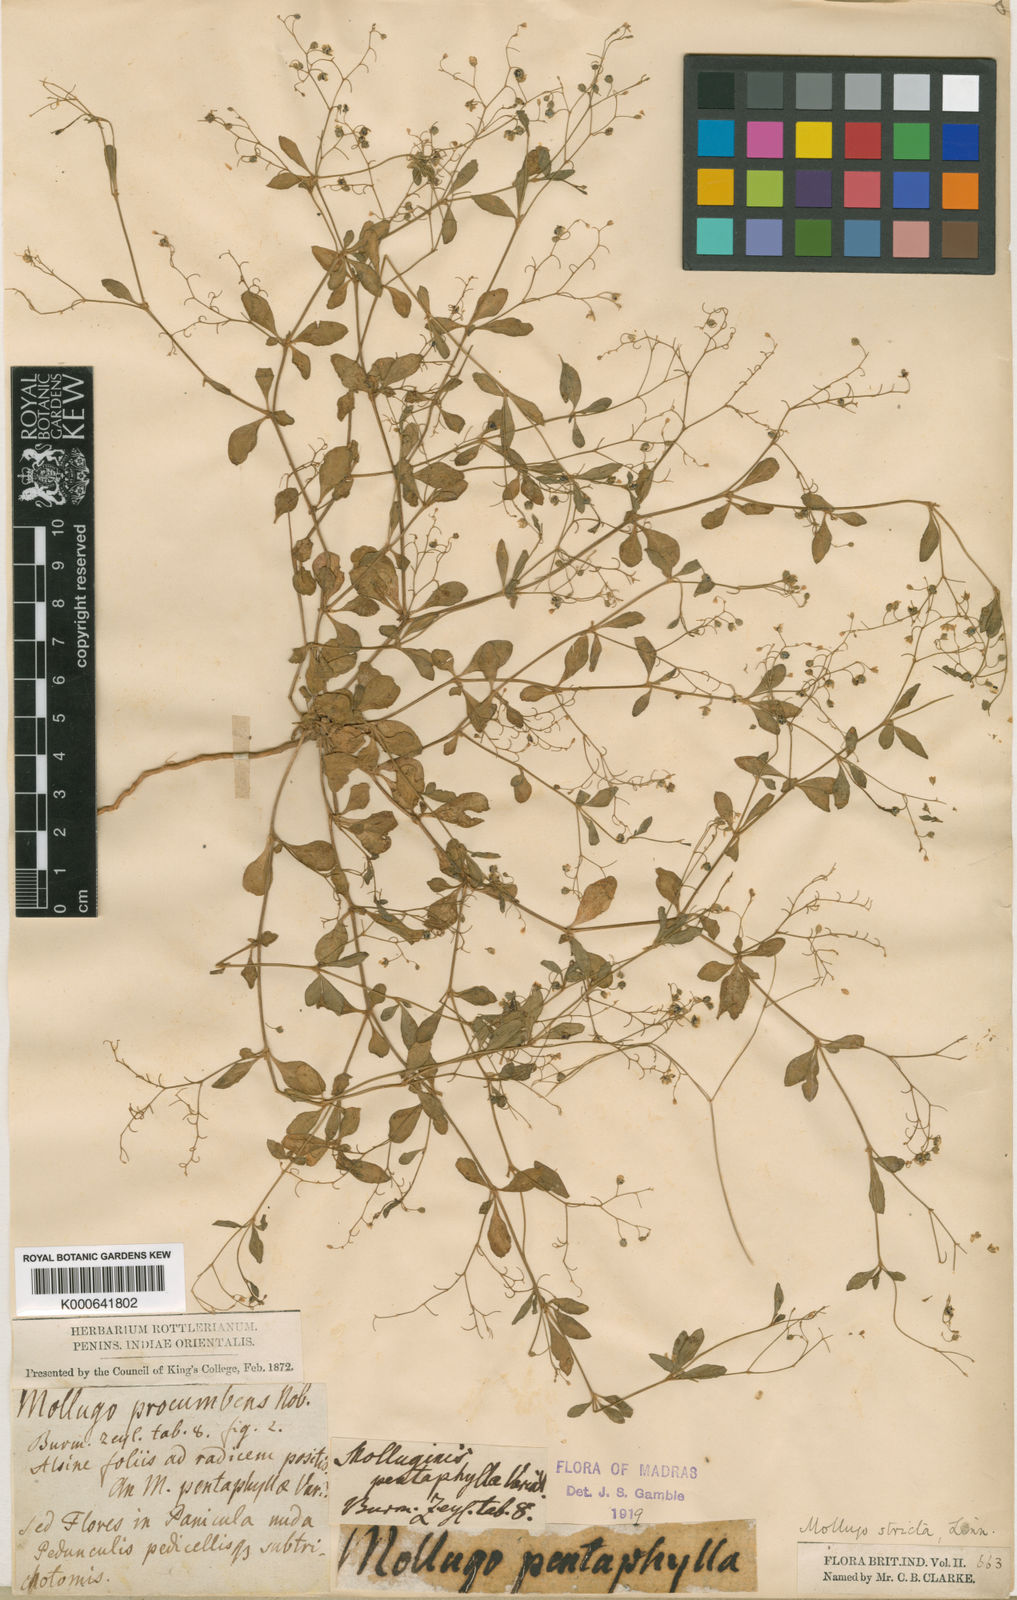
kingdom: Plantae
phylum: Tracheophyta
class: Magnoliopsida
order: Caryophyllales
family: Molluginaceae
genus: Trigastrotheca
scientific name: Trigastrotheca pentaphylla
